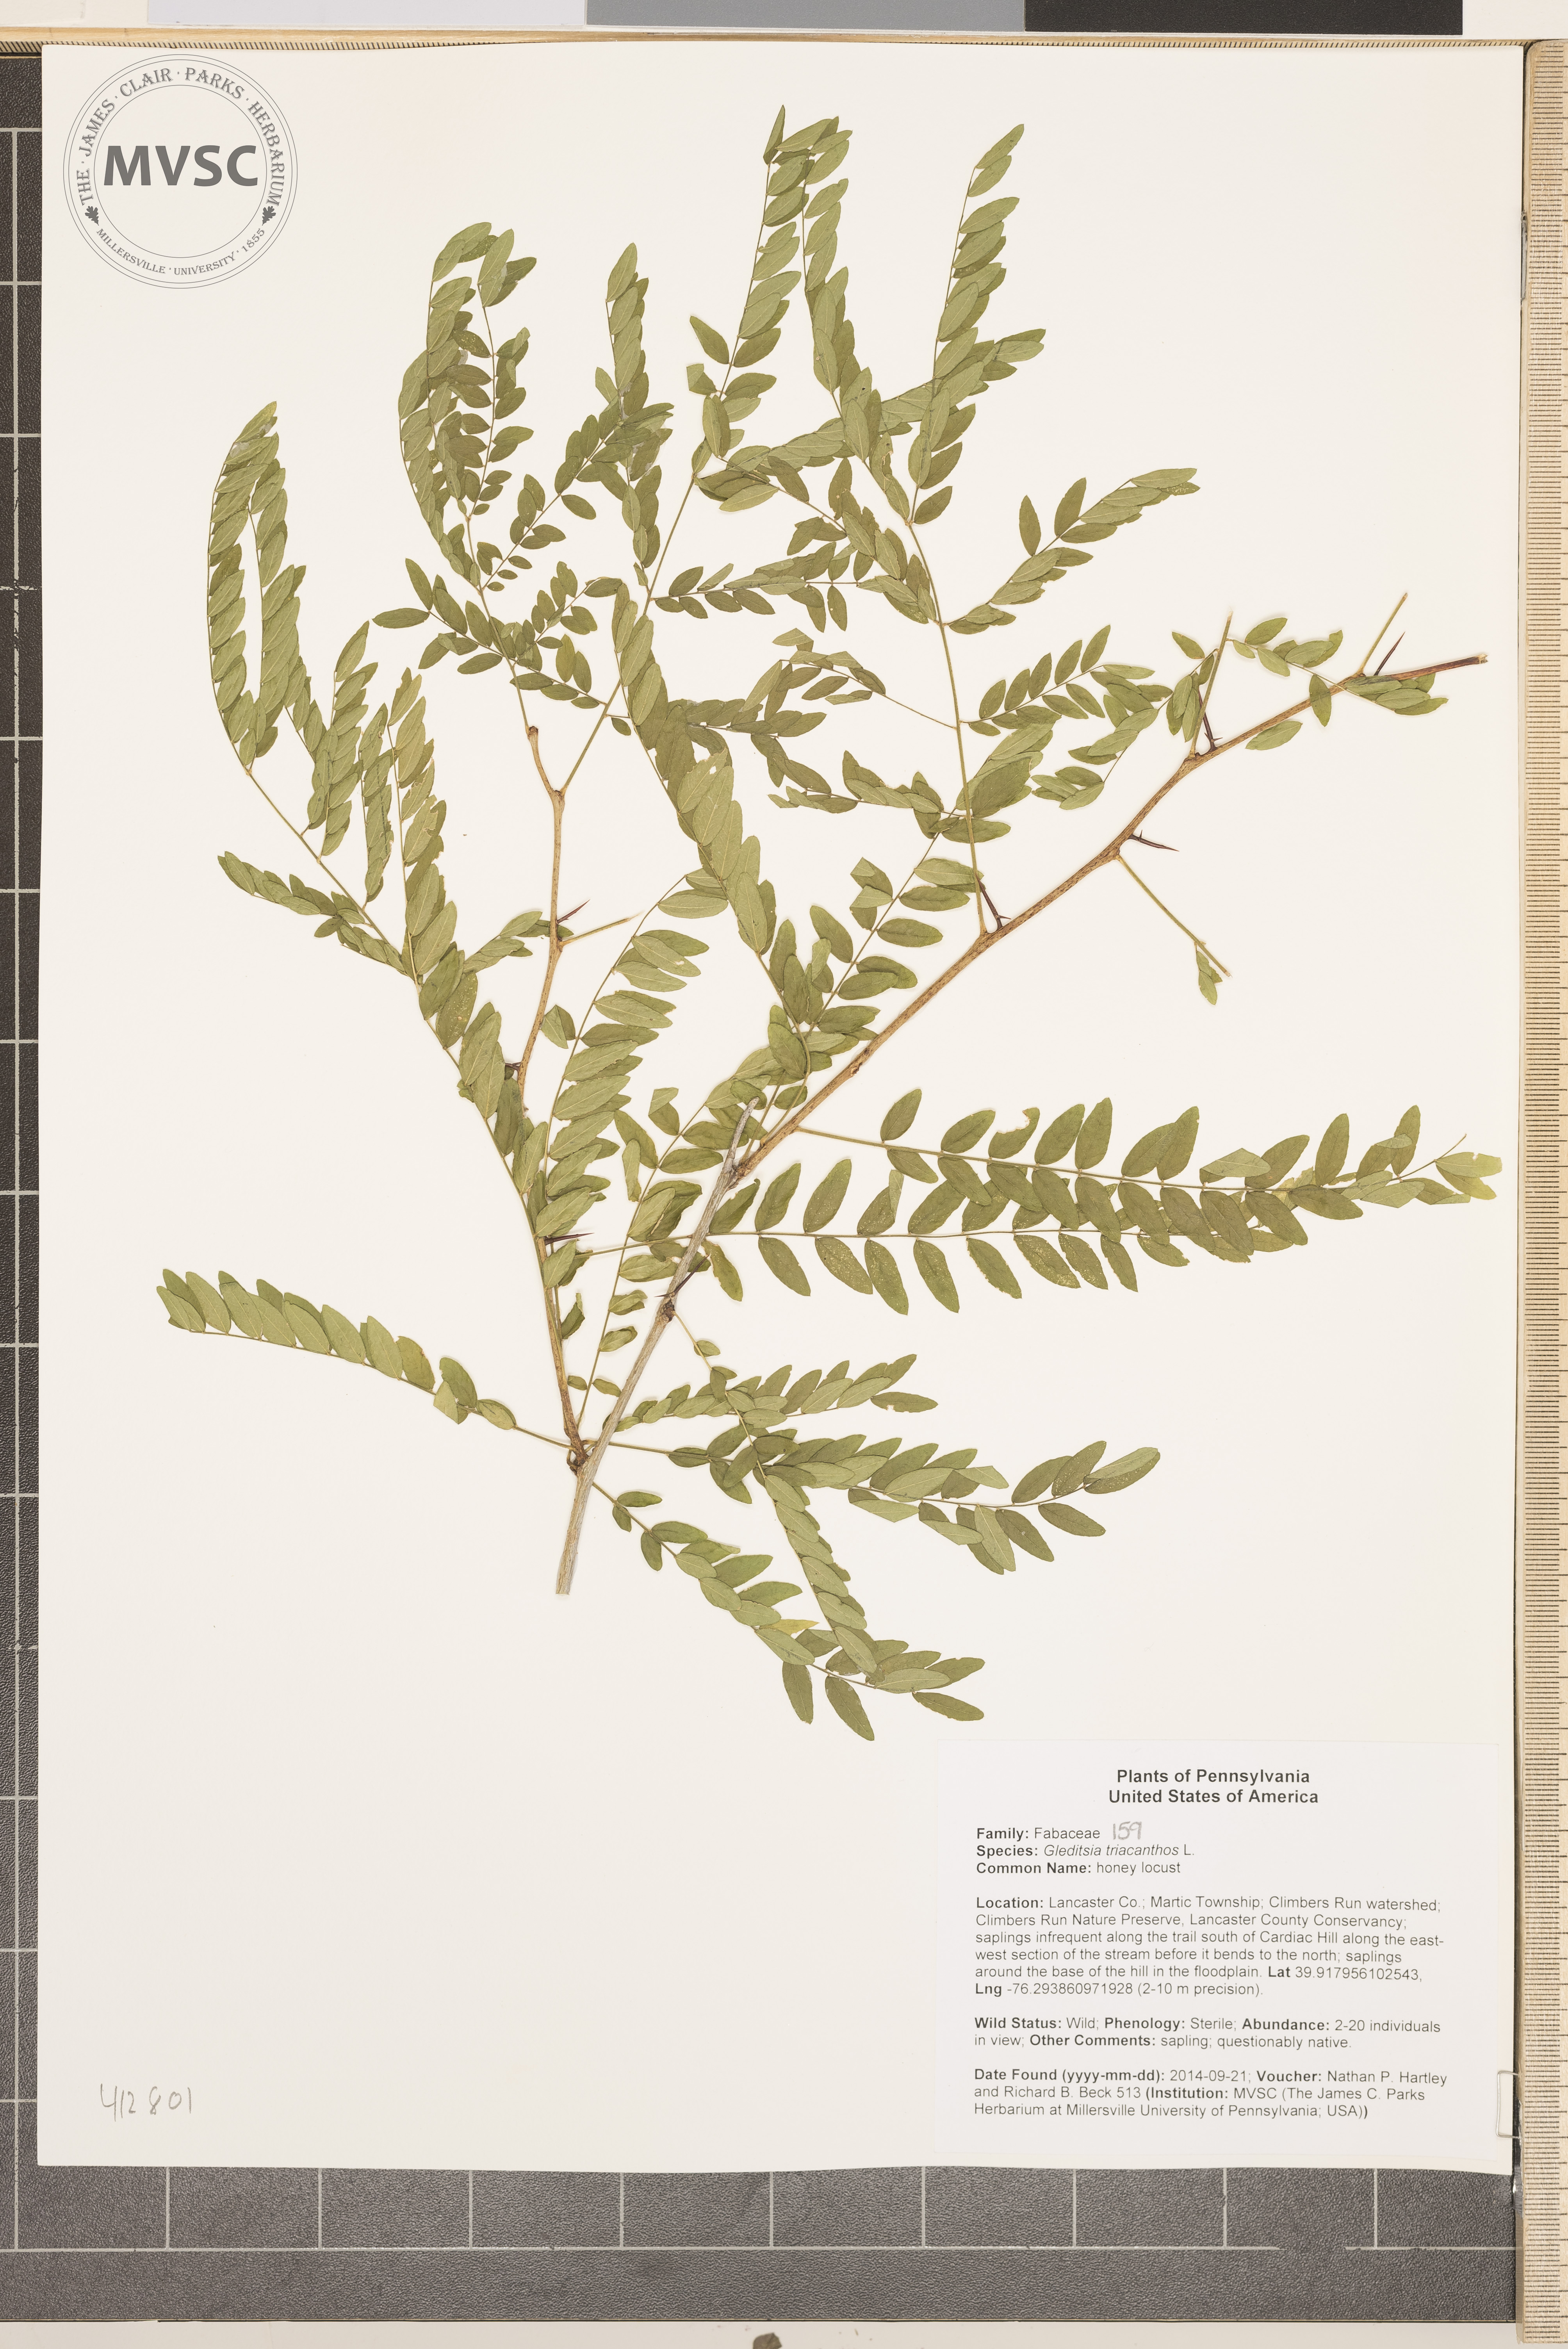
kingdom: Plantae
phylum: Tracheophyta
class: Magnoliopsida
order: Fabales
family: Fabaceae
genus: Gleditsia
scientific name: Gleditsia triacanthos
